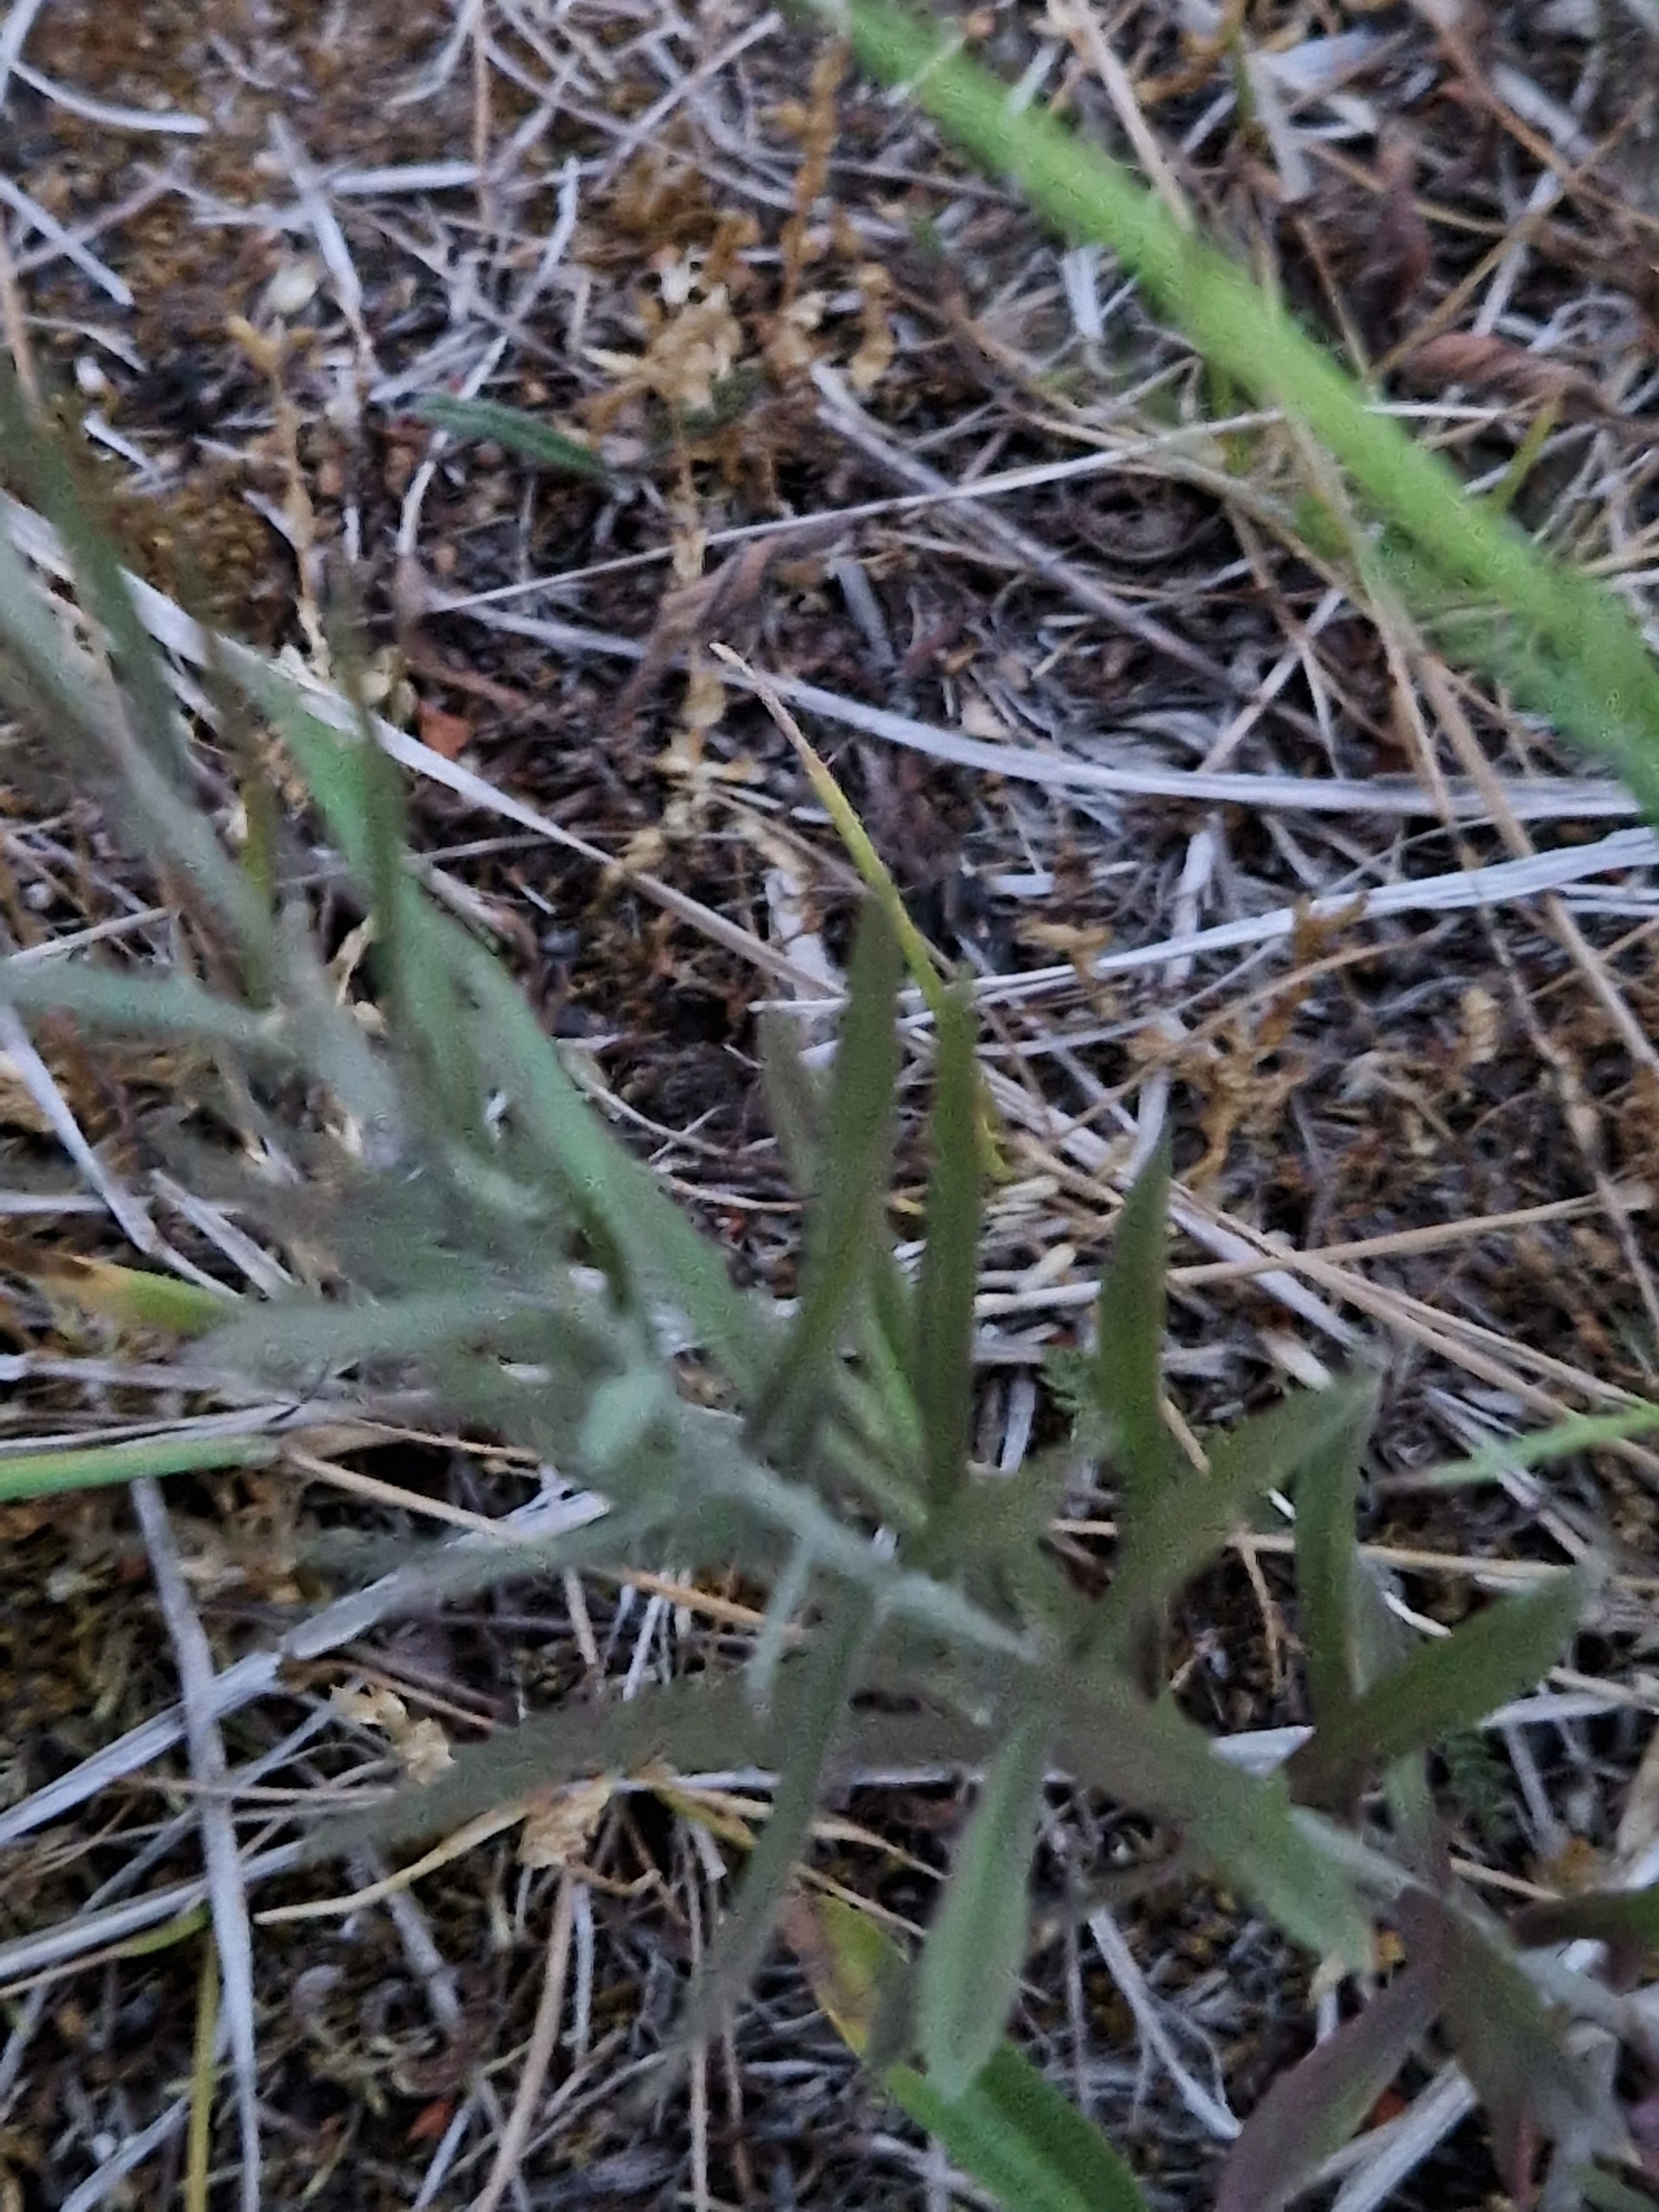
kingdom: Plantae
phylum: Tracheophyta
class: Magnoliopsida
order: Lamiales
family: Plantaginaceae
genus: Linaria
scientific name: Linaria vulgaris
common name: Almindelig torskemund
